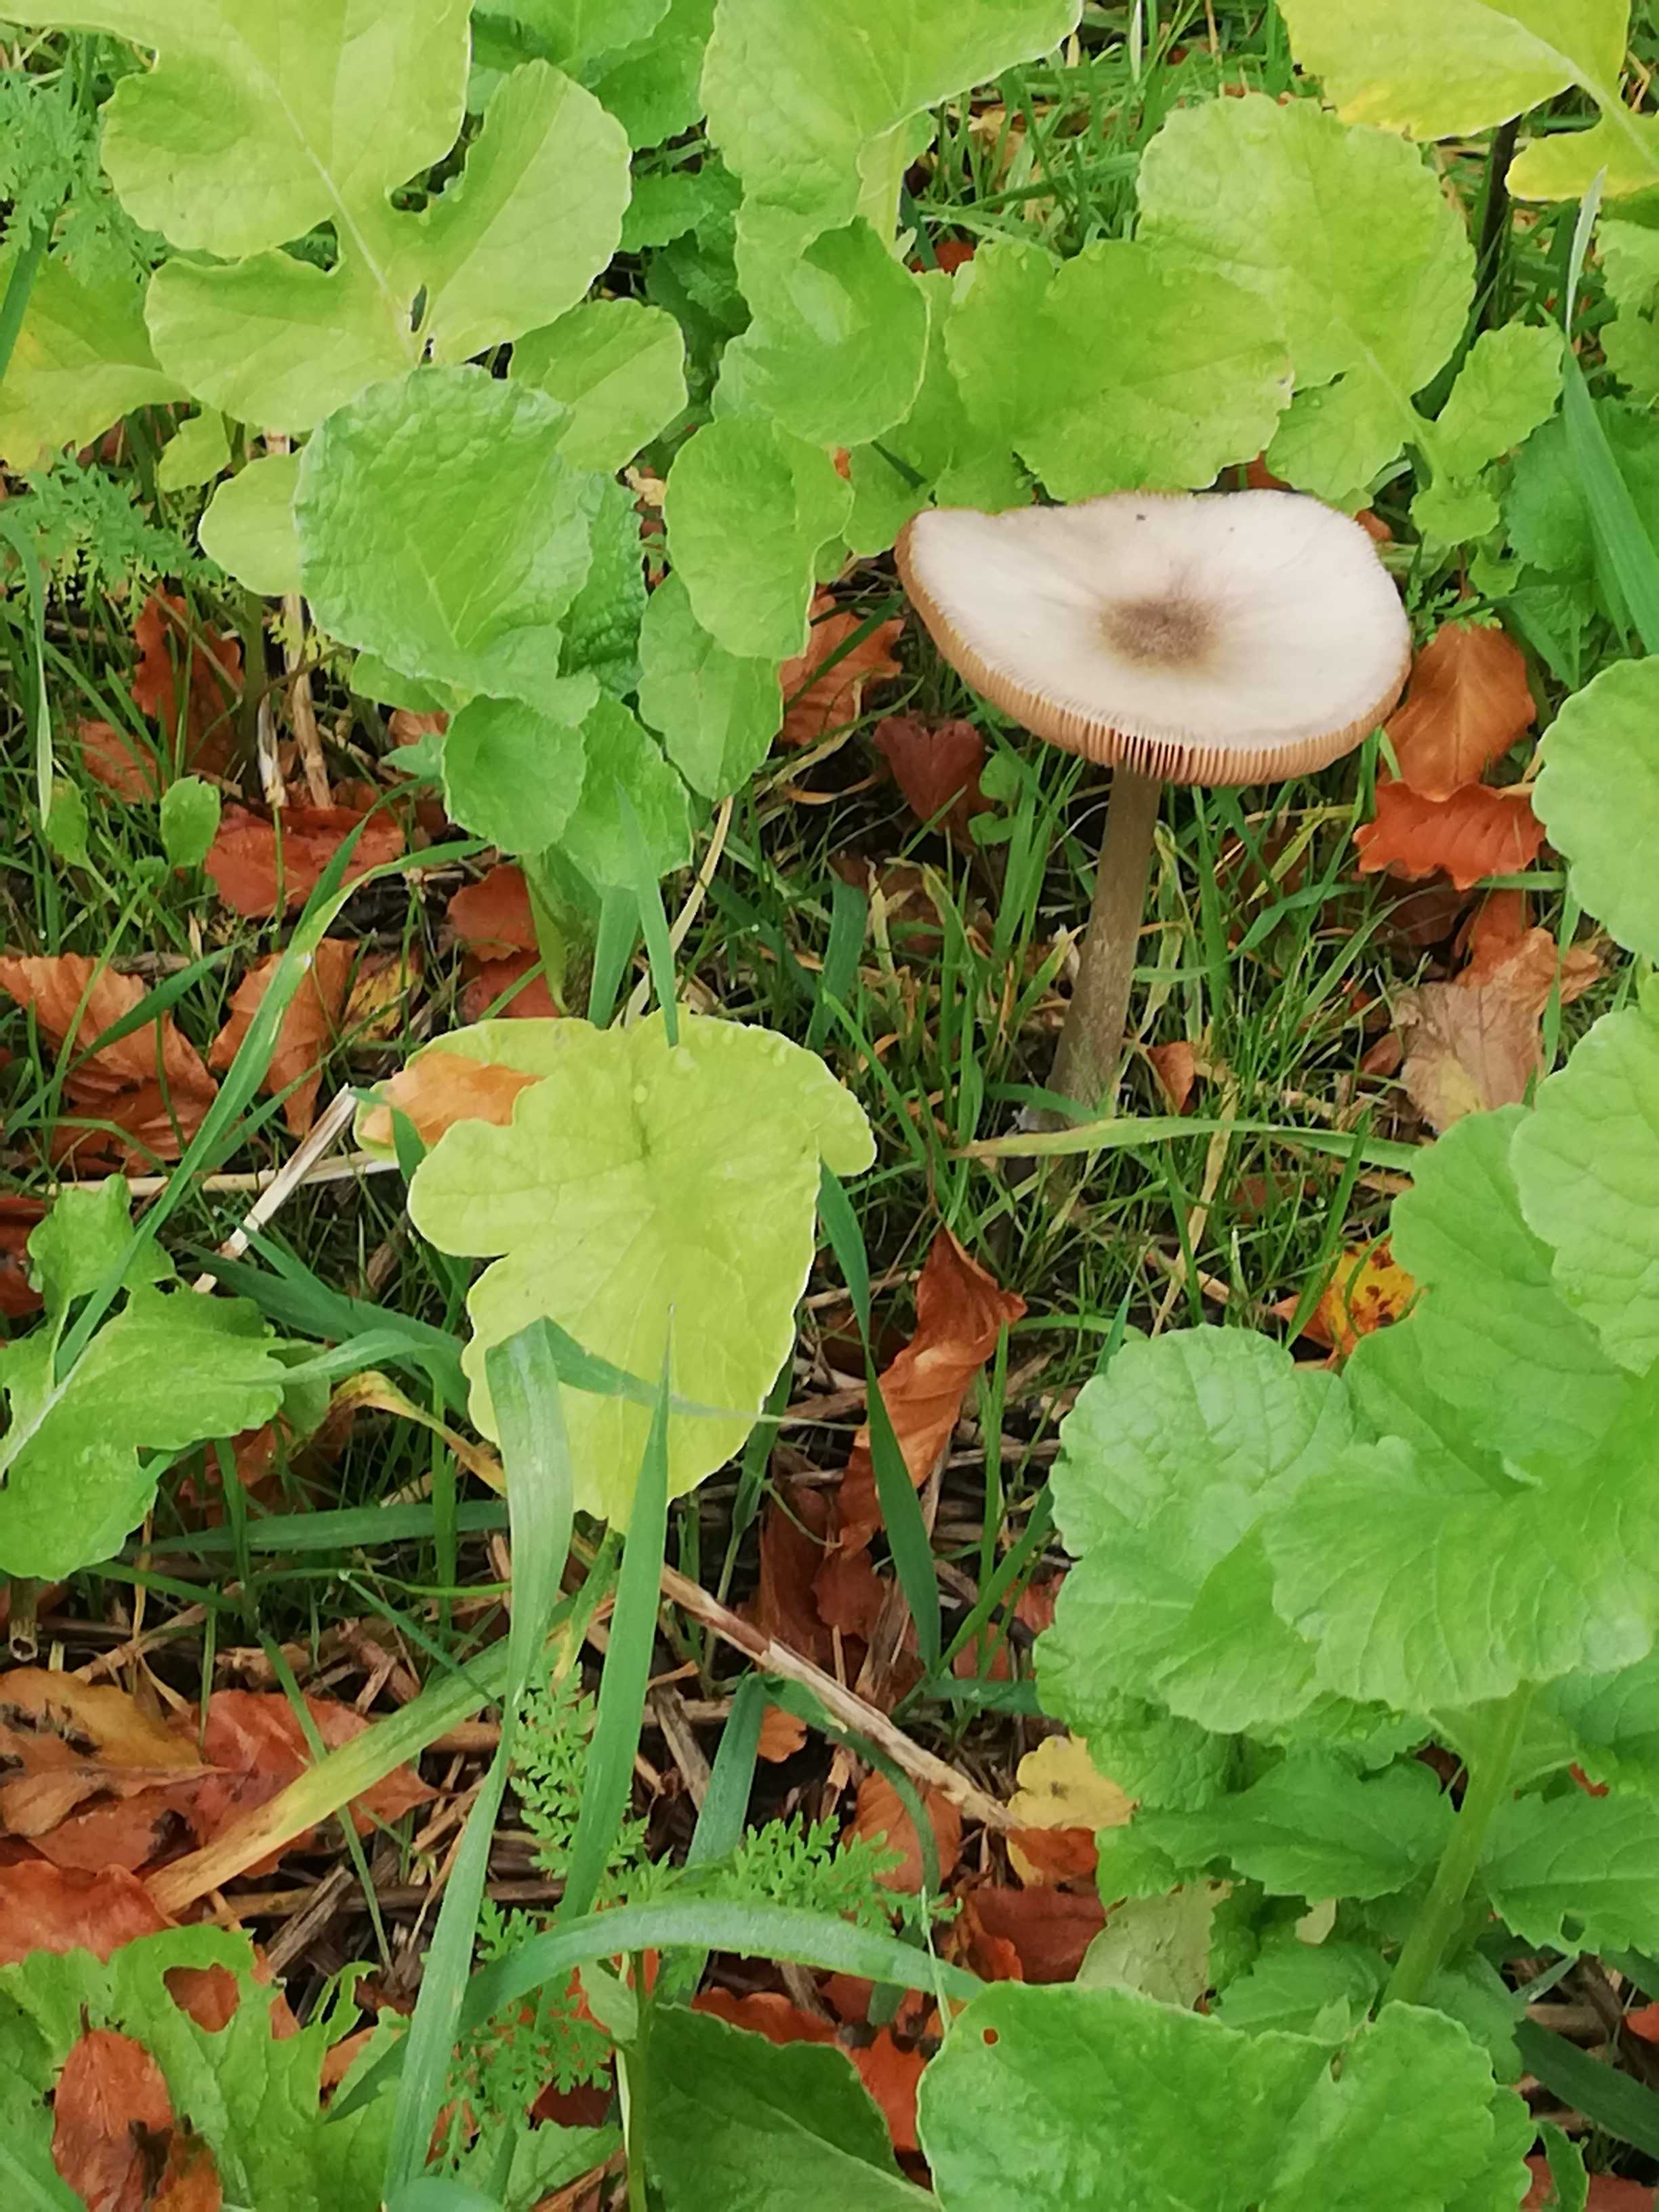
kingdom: Fungi
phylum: Basidiomycota
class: Agaricomycetes
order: Agaricales
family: Pluteaceae
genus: Volvopluteus
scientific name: Volvopluteus gloiocephalus
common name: høj posesvamp
